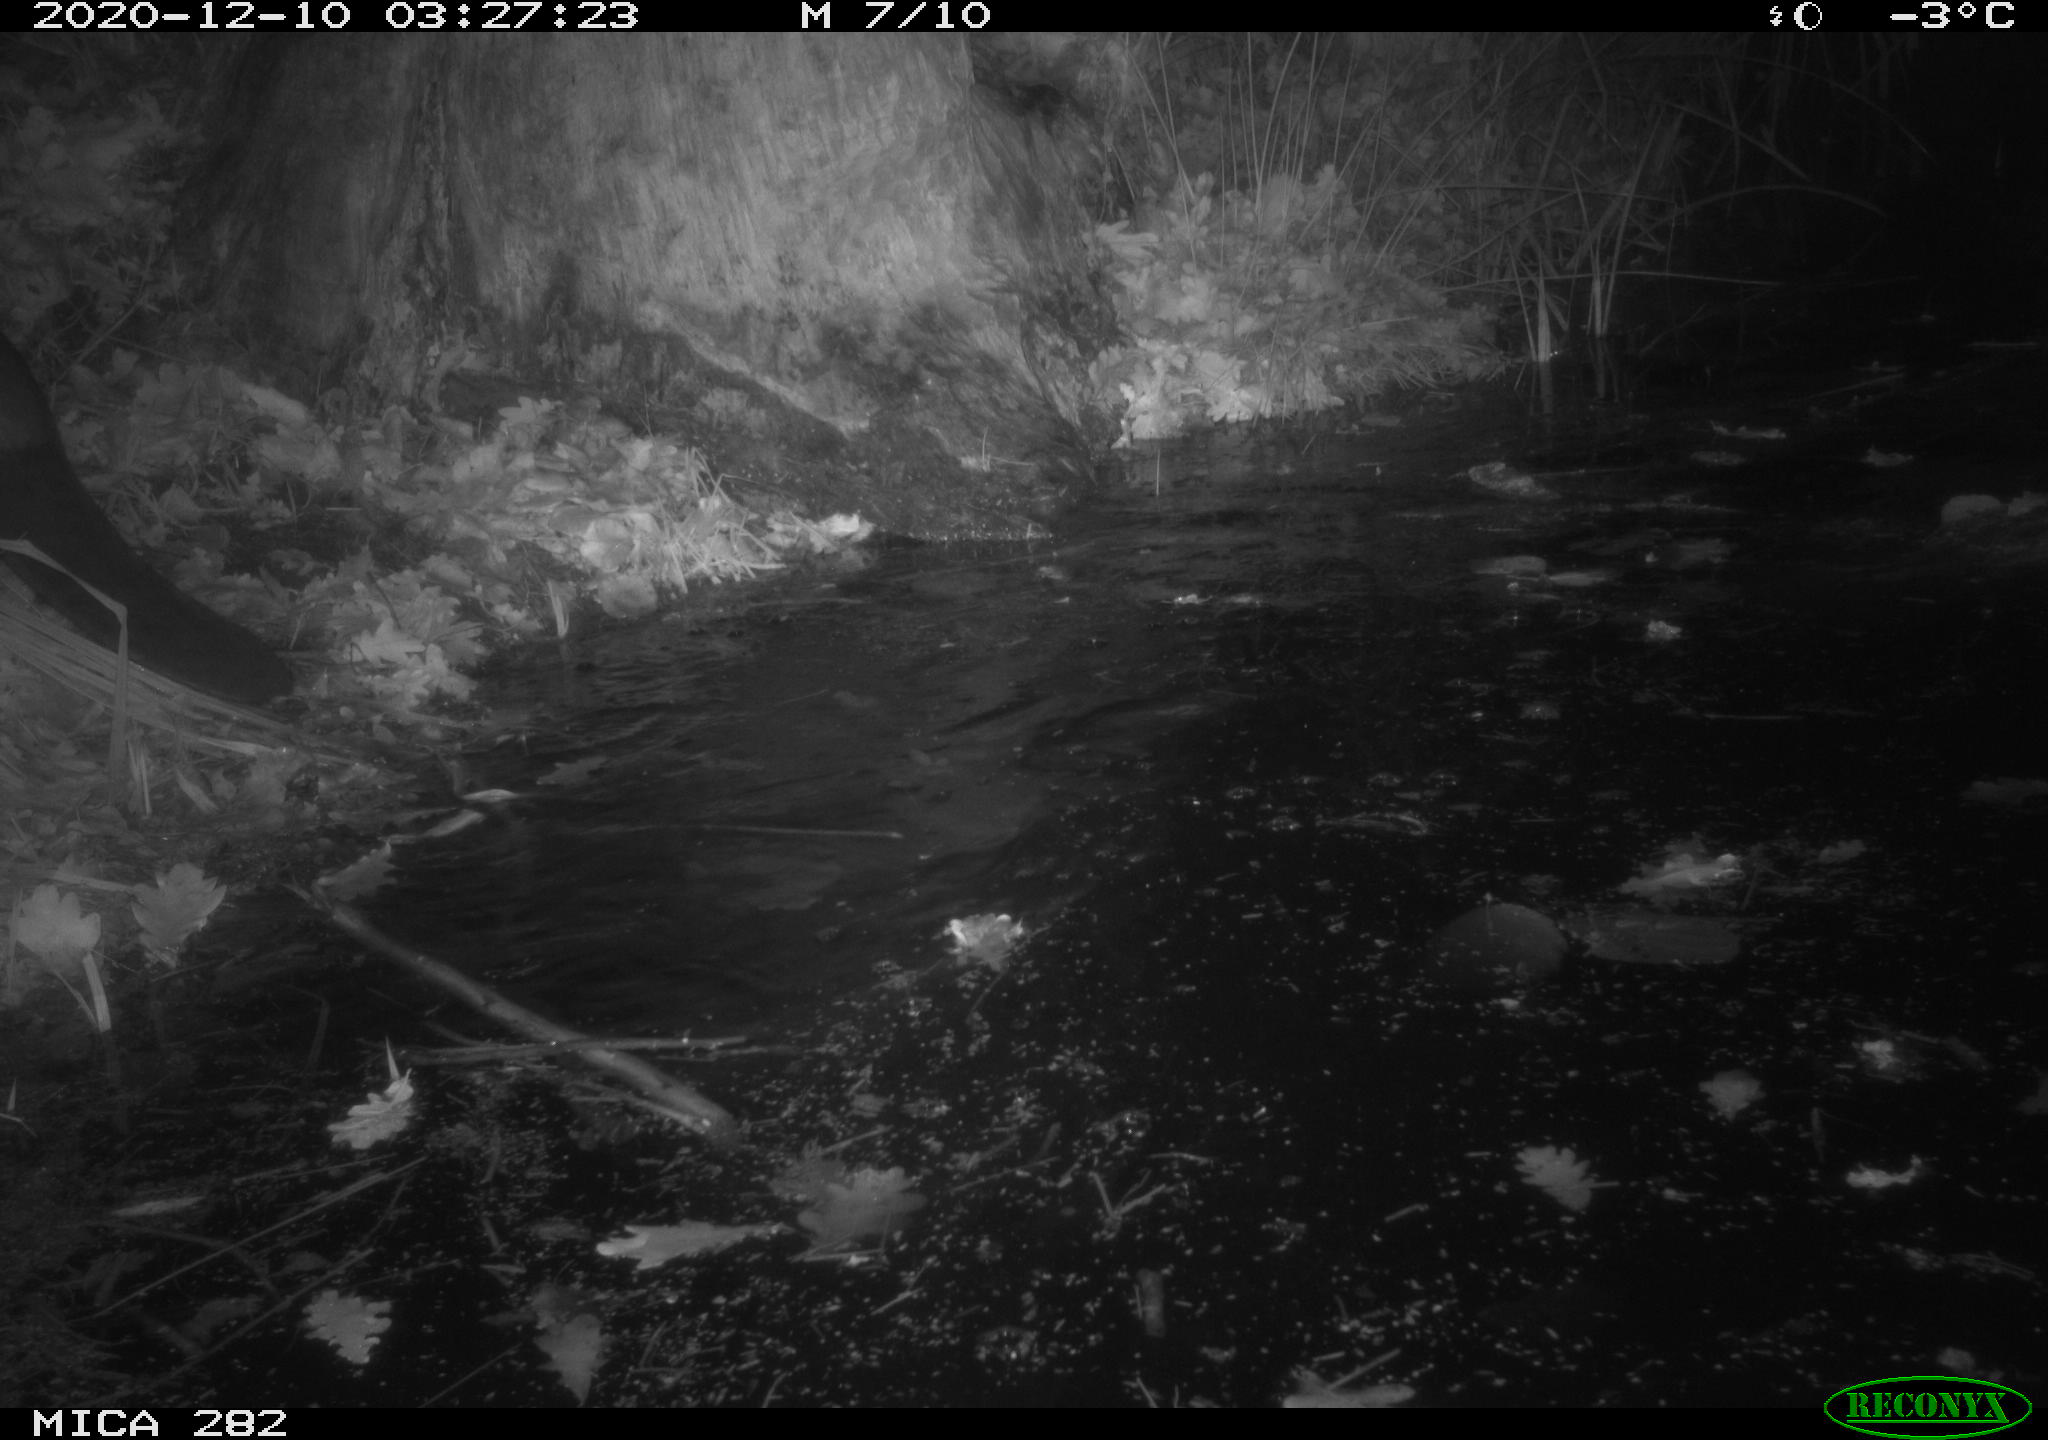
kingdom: Animalia
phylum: Chordata
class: Mammalia
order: Rodentia
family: Castoridae
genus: Castor
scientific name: Castor fiber
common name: Eurasian beaver
